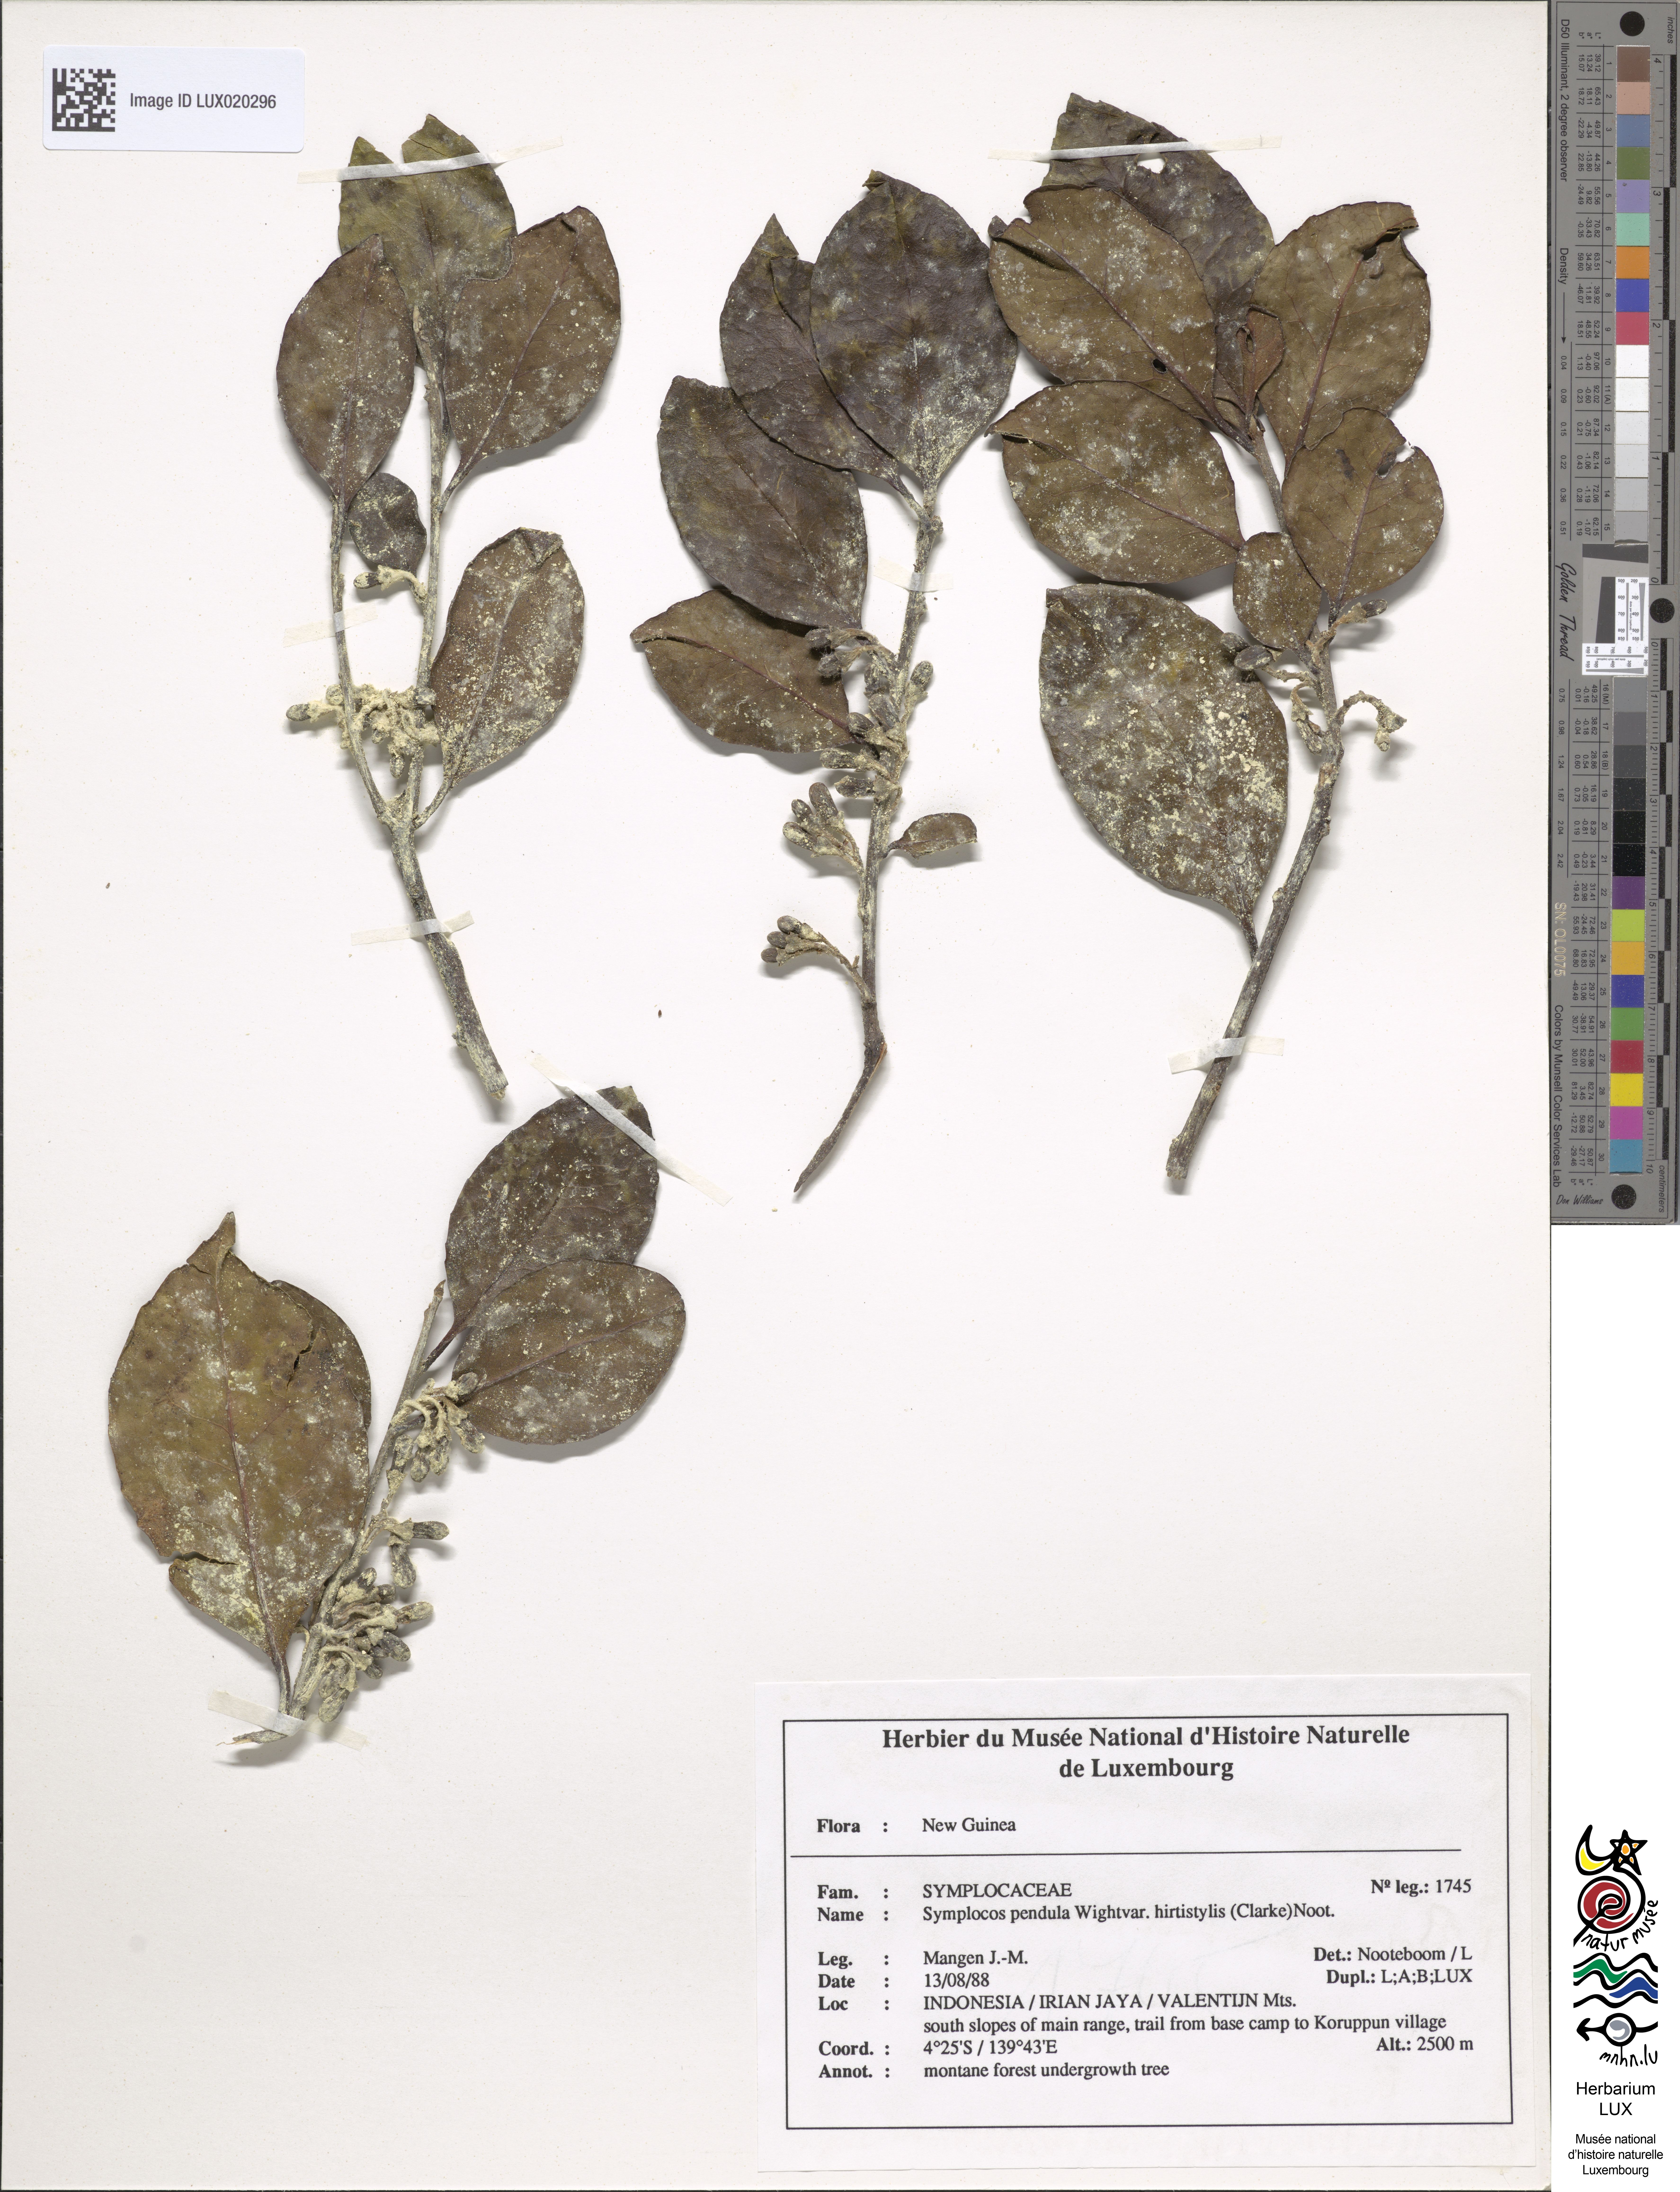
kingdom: Plantae
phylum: Tracheophyta
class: Magnoliopsida
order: Ericales
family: Symplocaceae
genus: Symplocos
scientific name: Symplocos pendula
